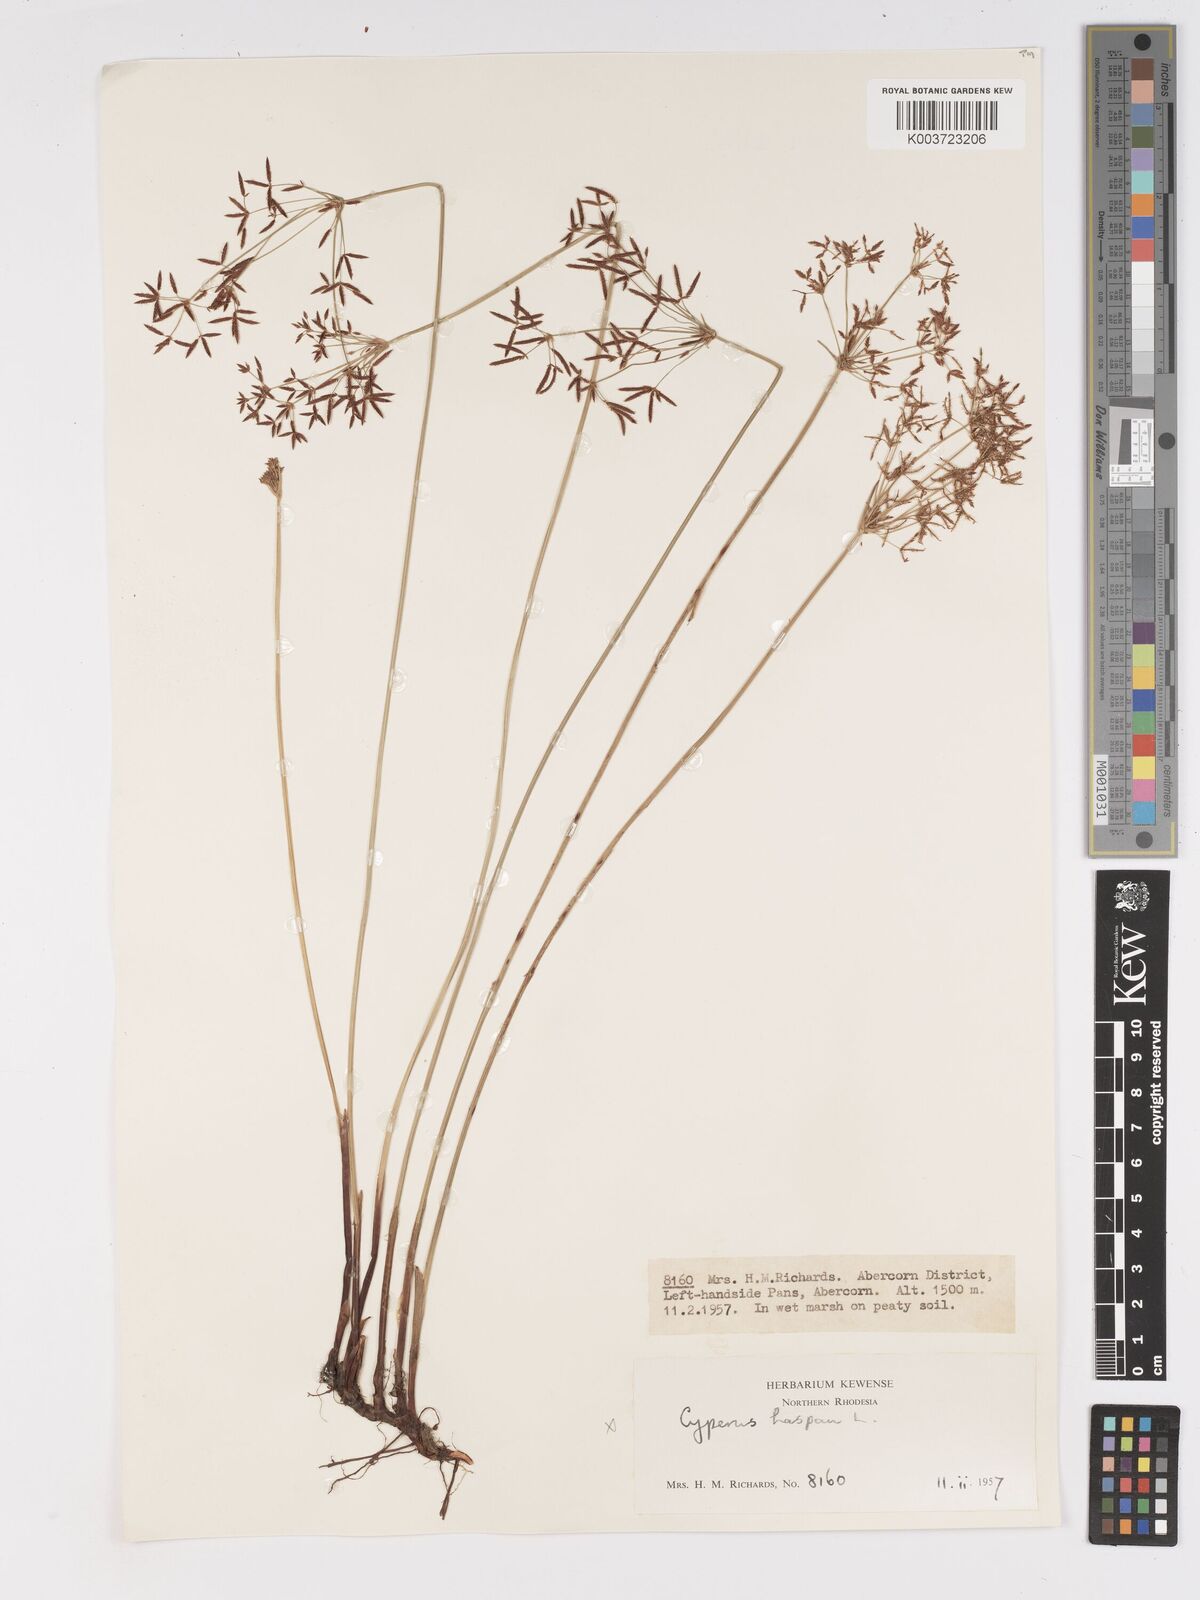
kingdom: Plantae
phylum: Tracheophyta
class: Liliopsida
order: Poales
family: Cyperaceae
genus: Cyperus
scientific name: Cyperus haspan
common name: Haspan flatsedge
